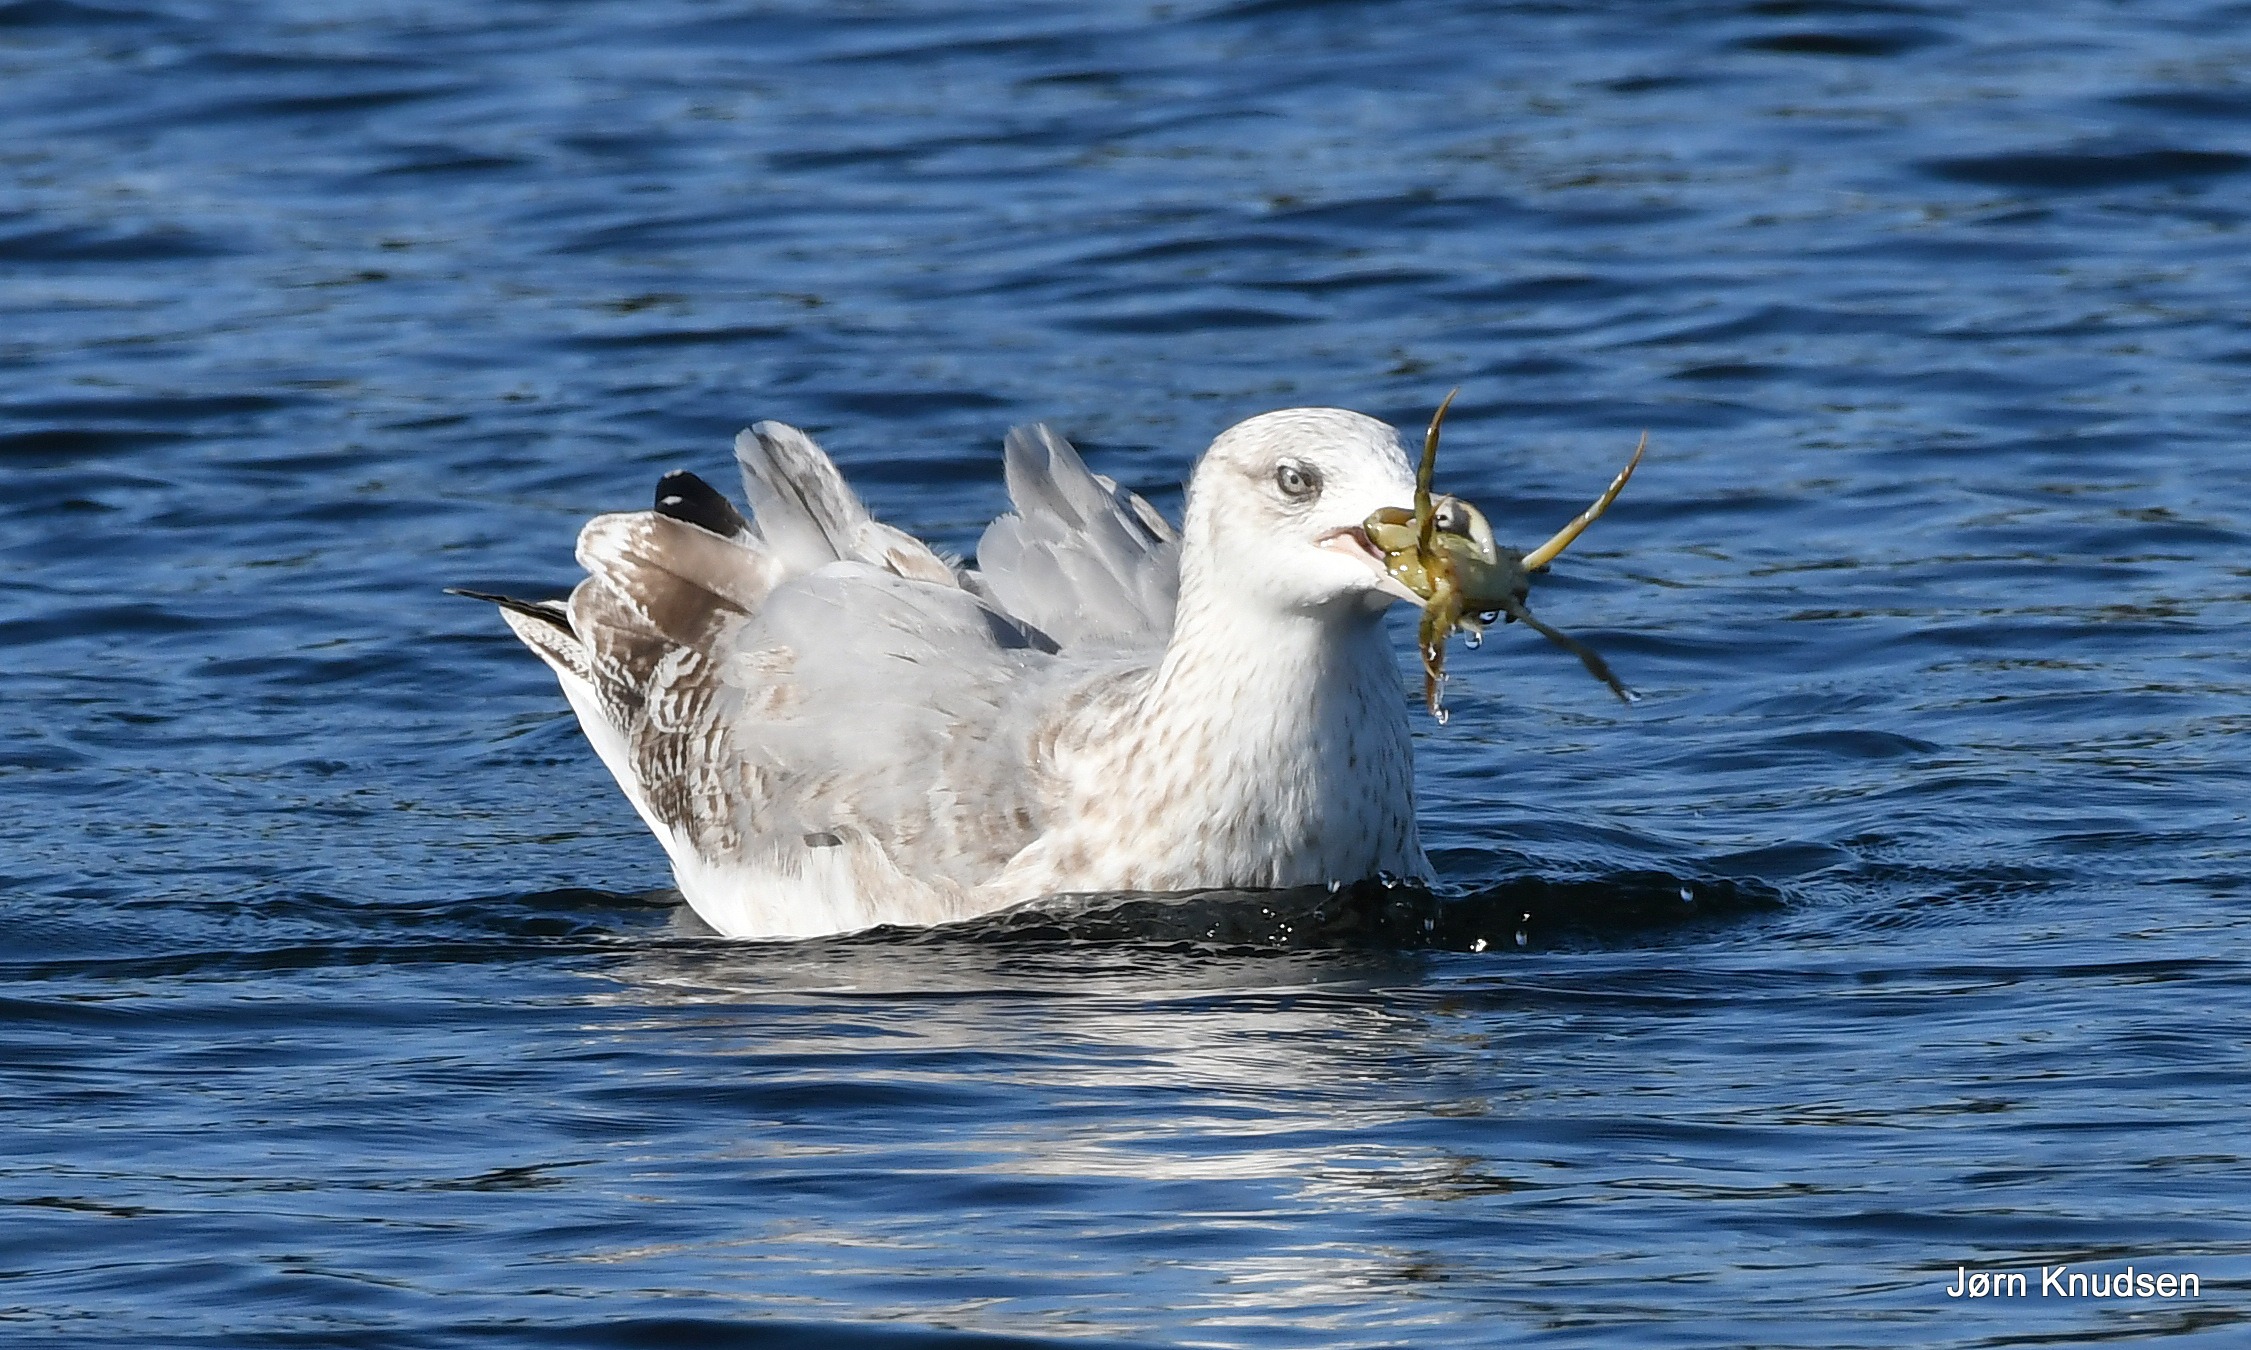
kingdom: Animalia
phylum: Chordata
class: Aves
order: Charadriiformes
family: Laridae
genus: Larus
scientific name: Larus argentatus
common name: Sølvmåge
